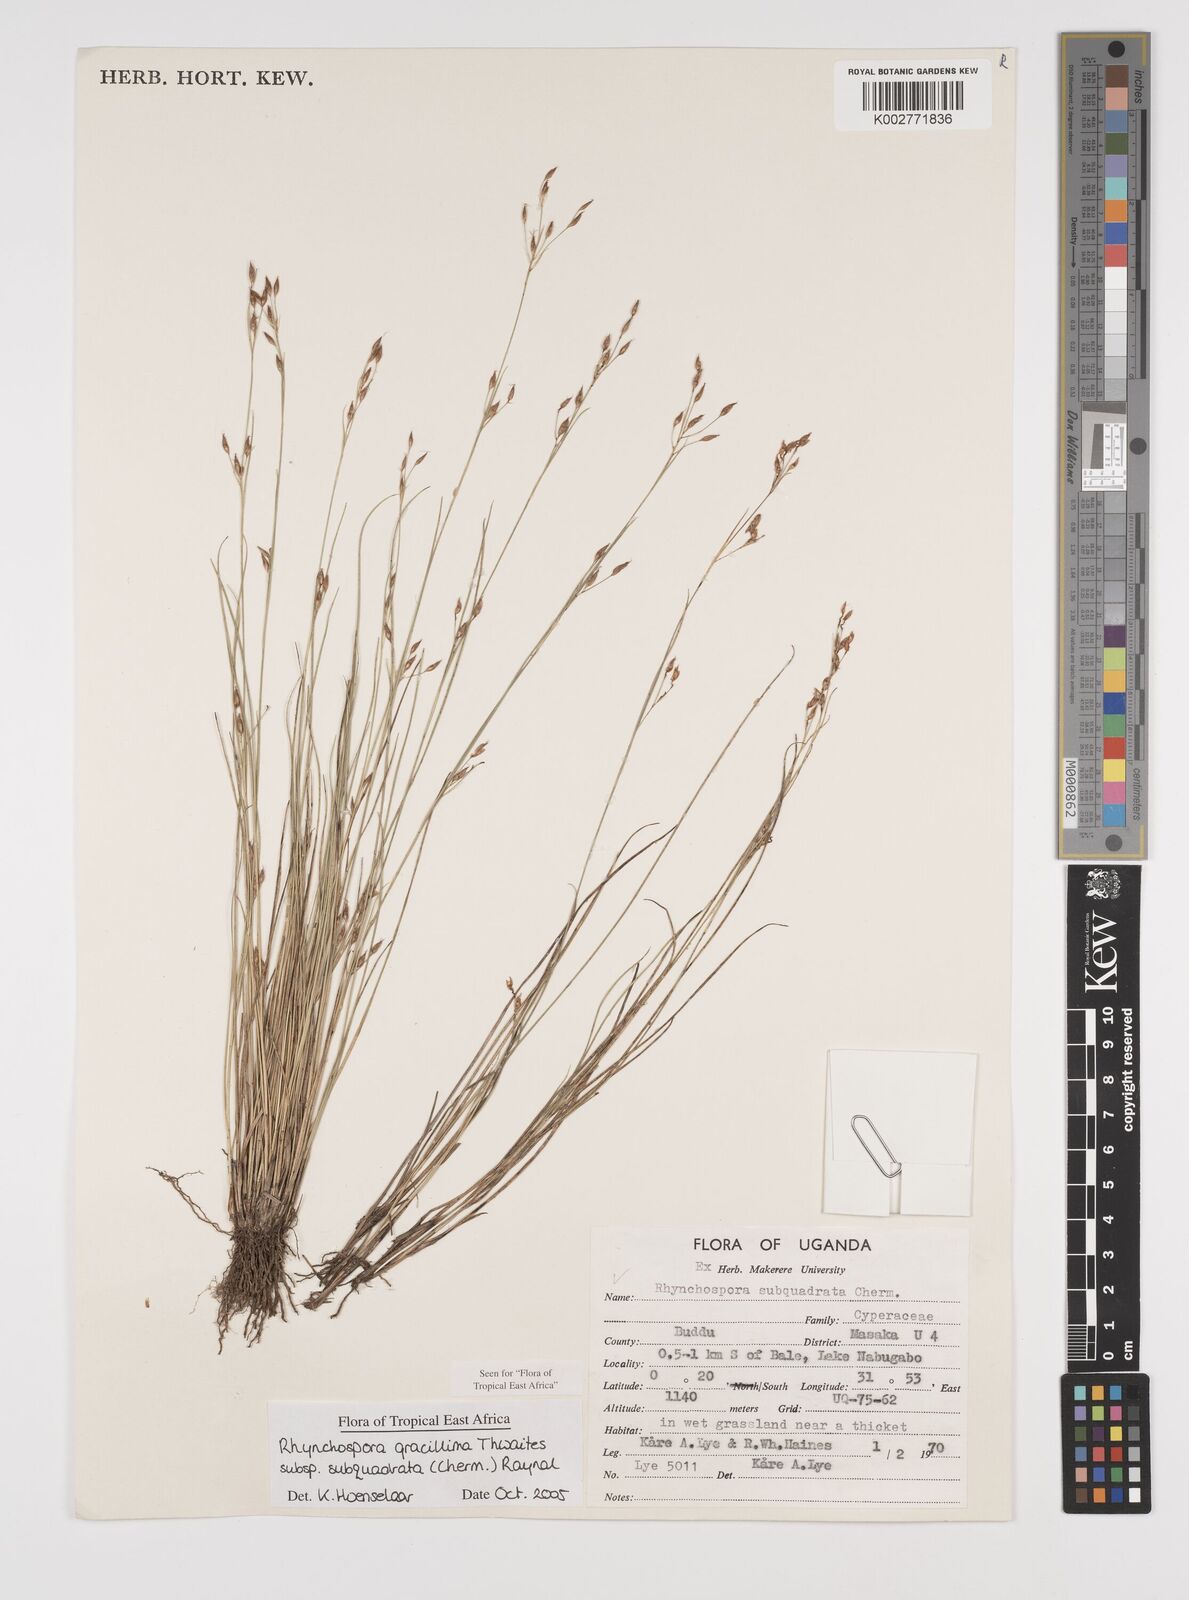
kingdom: Plantae
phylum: Tracheophyta
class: Liliopsida
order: Poales
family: Cyperaceae
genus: Rhynchospora
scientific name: Rhynchospora gracillima
